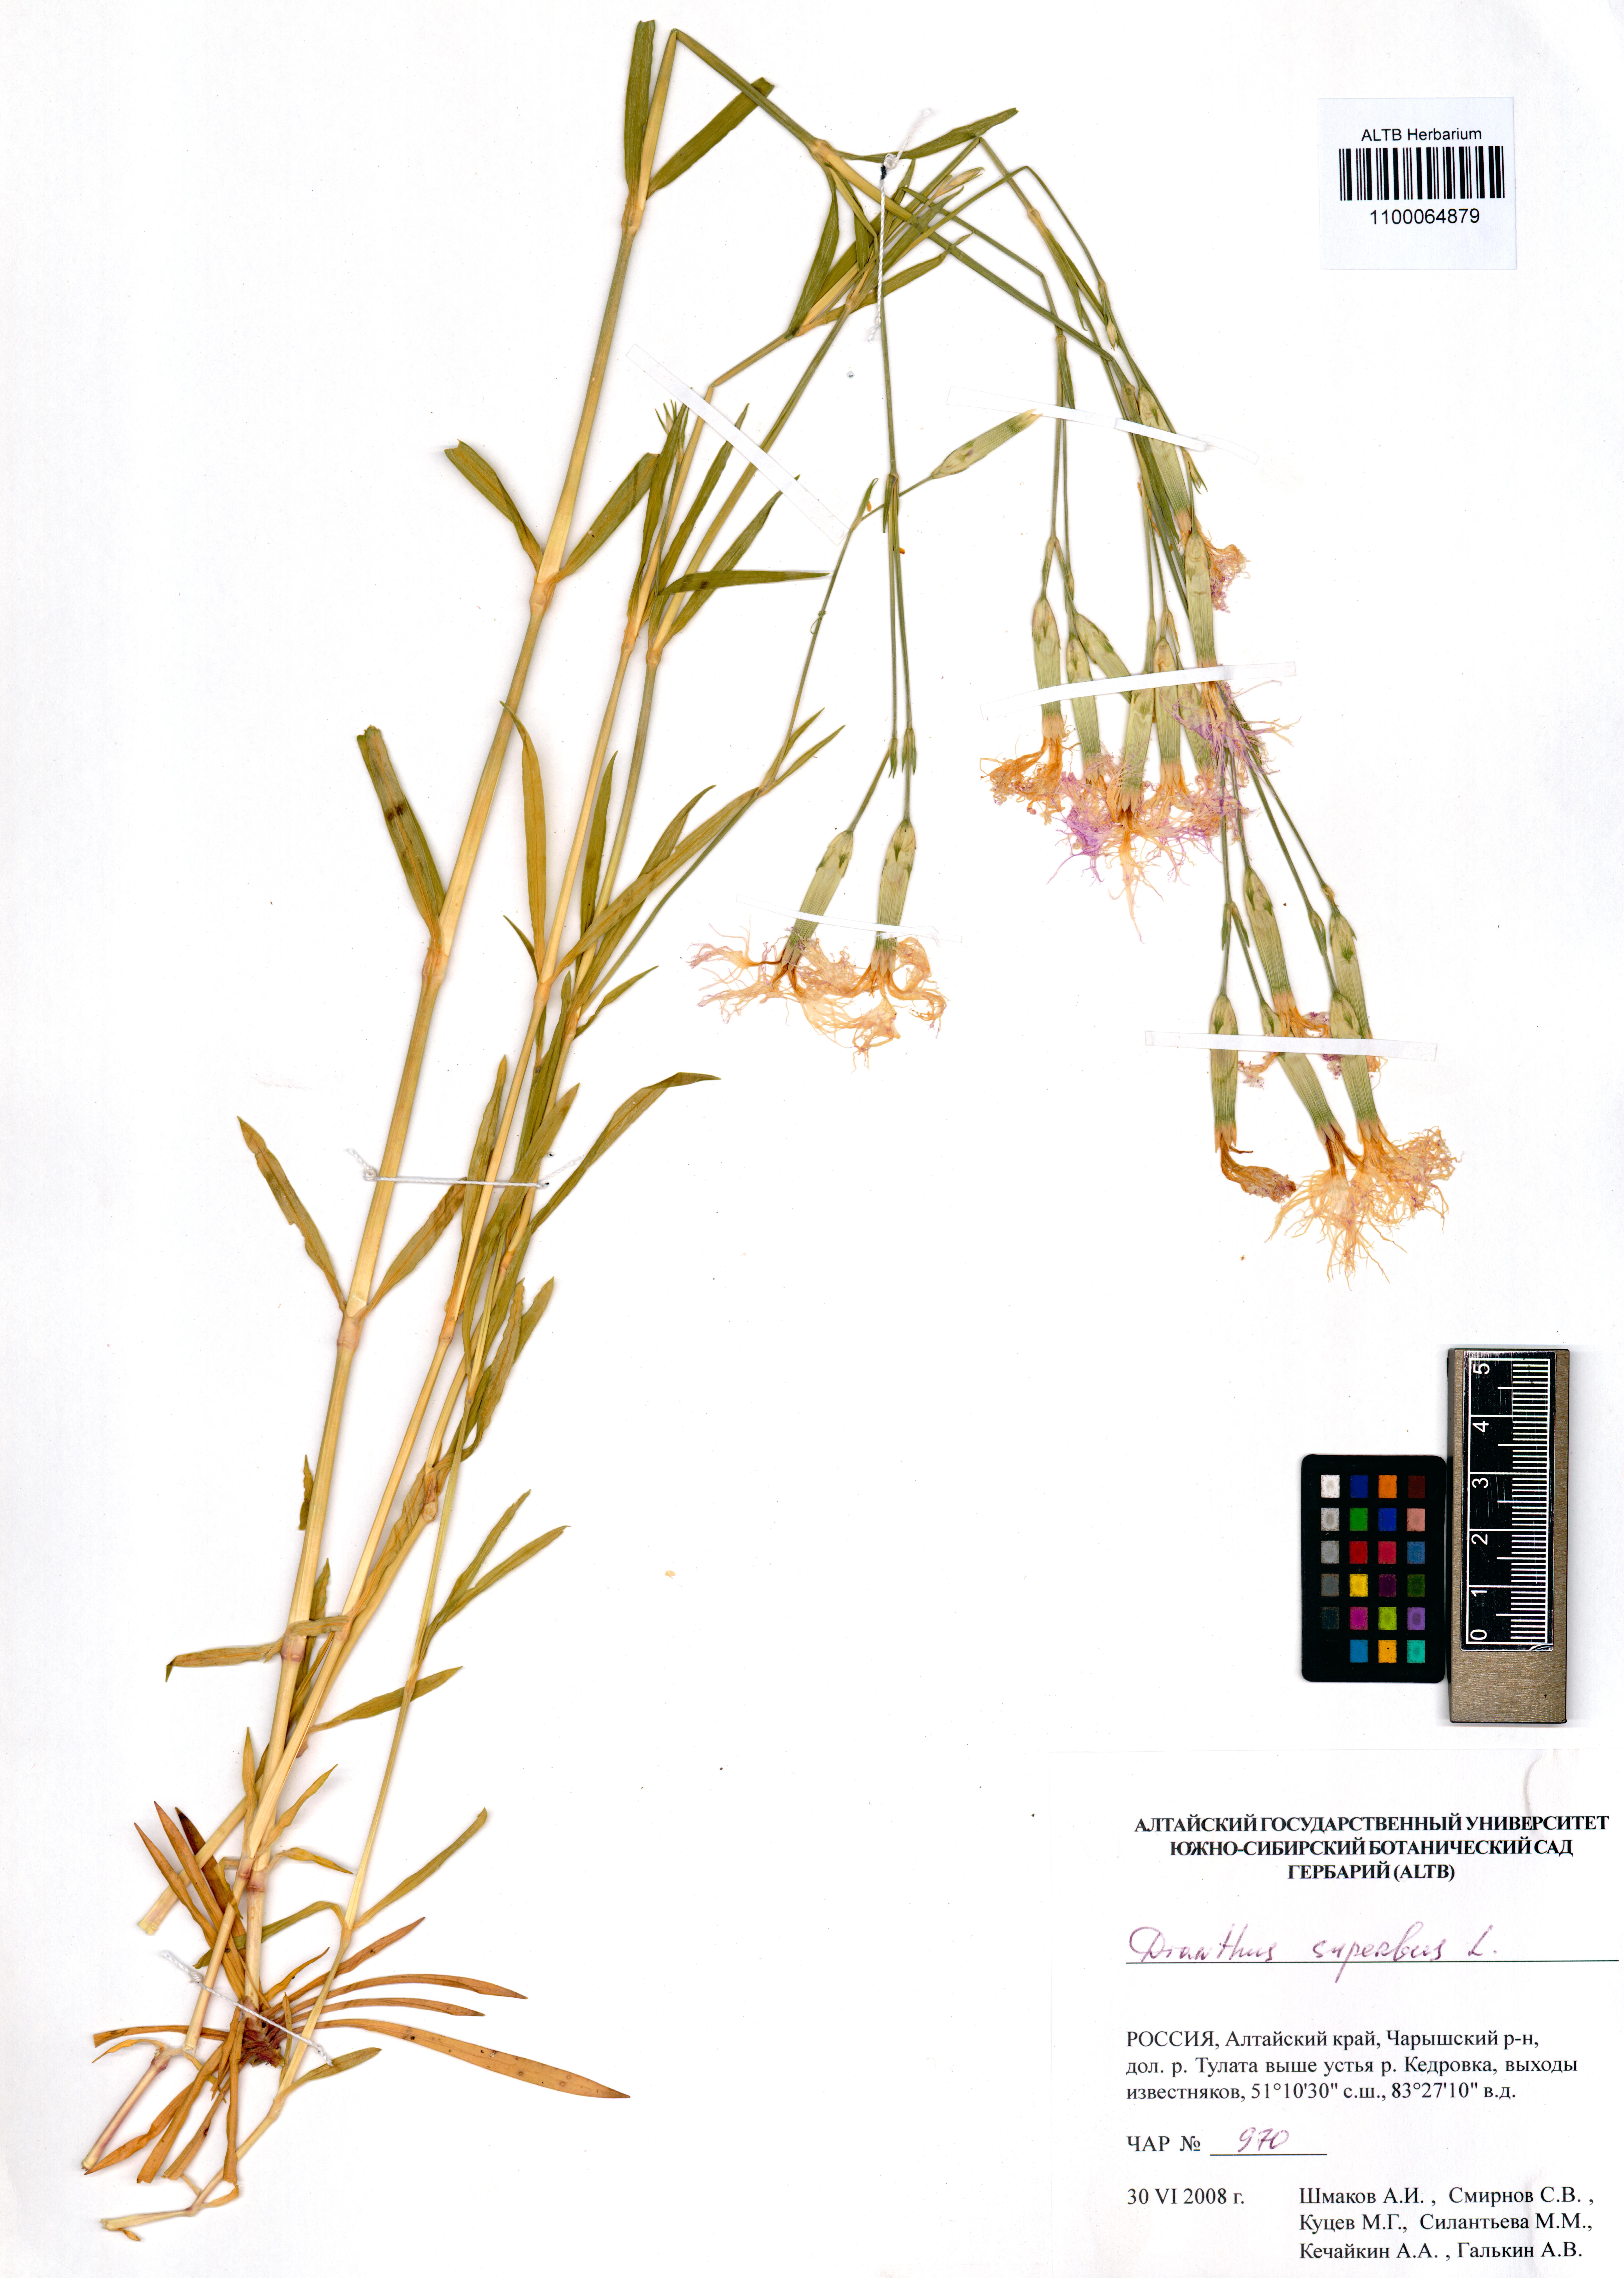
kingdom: Plantae
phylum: Tracheophyta
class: Magnoliopsida
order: Caryophyllales
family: Caryophyllaceae
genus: Dianthus
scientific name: Dianthus superbus
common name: Fringed pink
